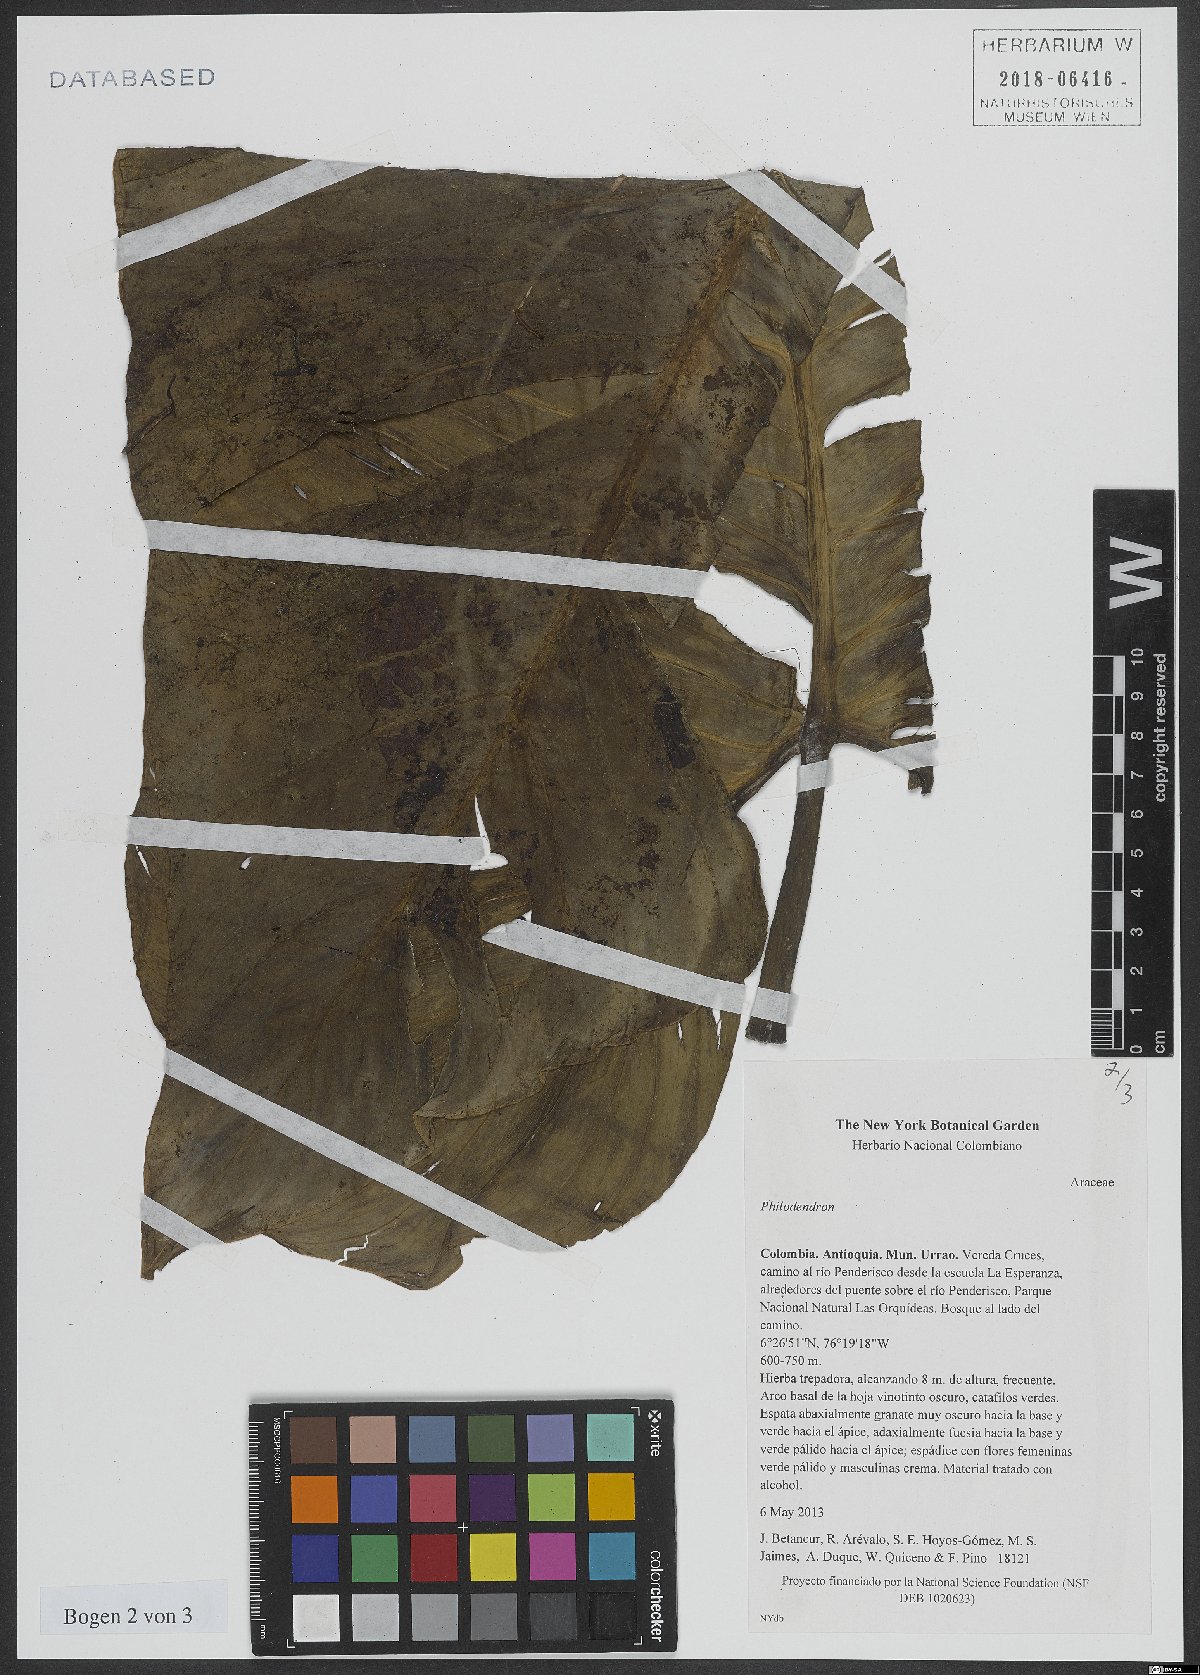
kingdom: Plantae
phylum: Tracheophyta
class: Liliopsida
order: Alismatales
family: Araceae
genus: Philodendron
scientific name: Philodendron
